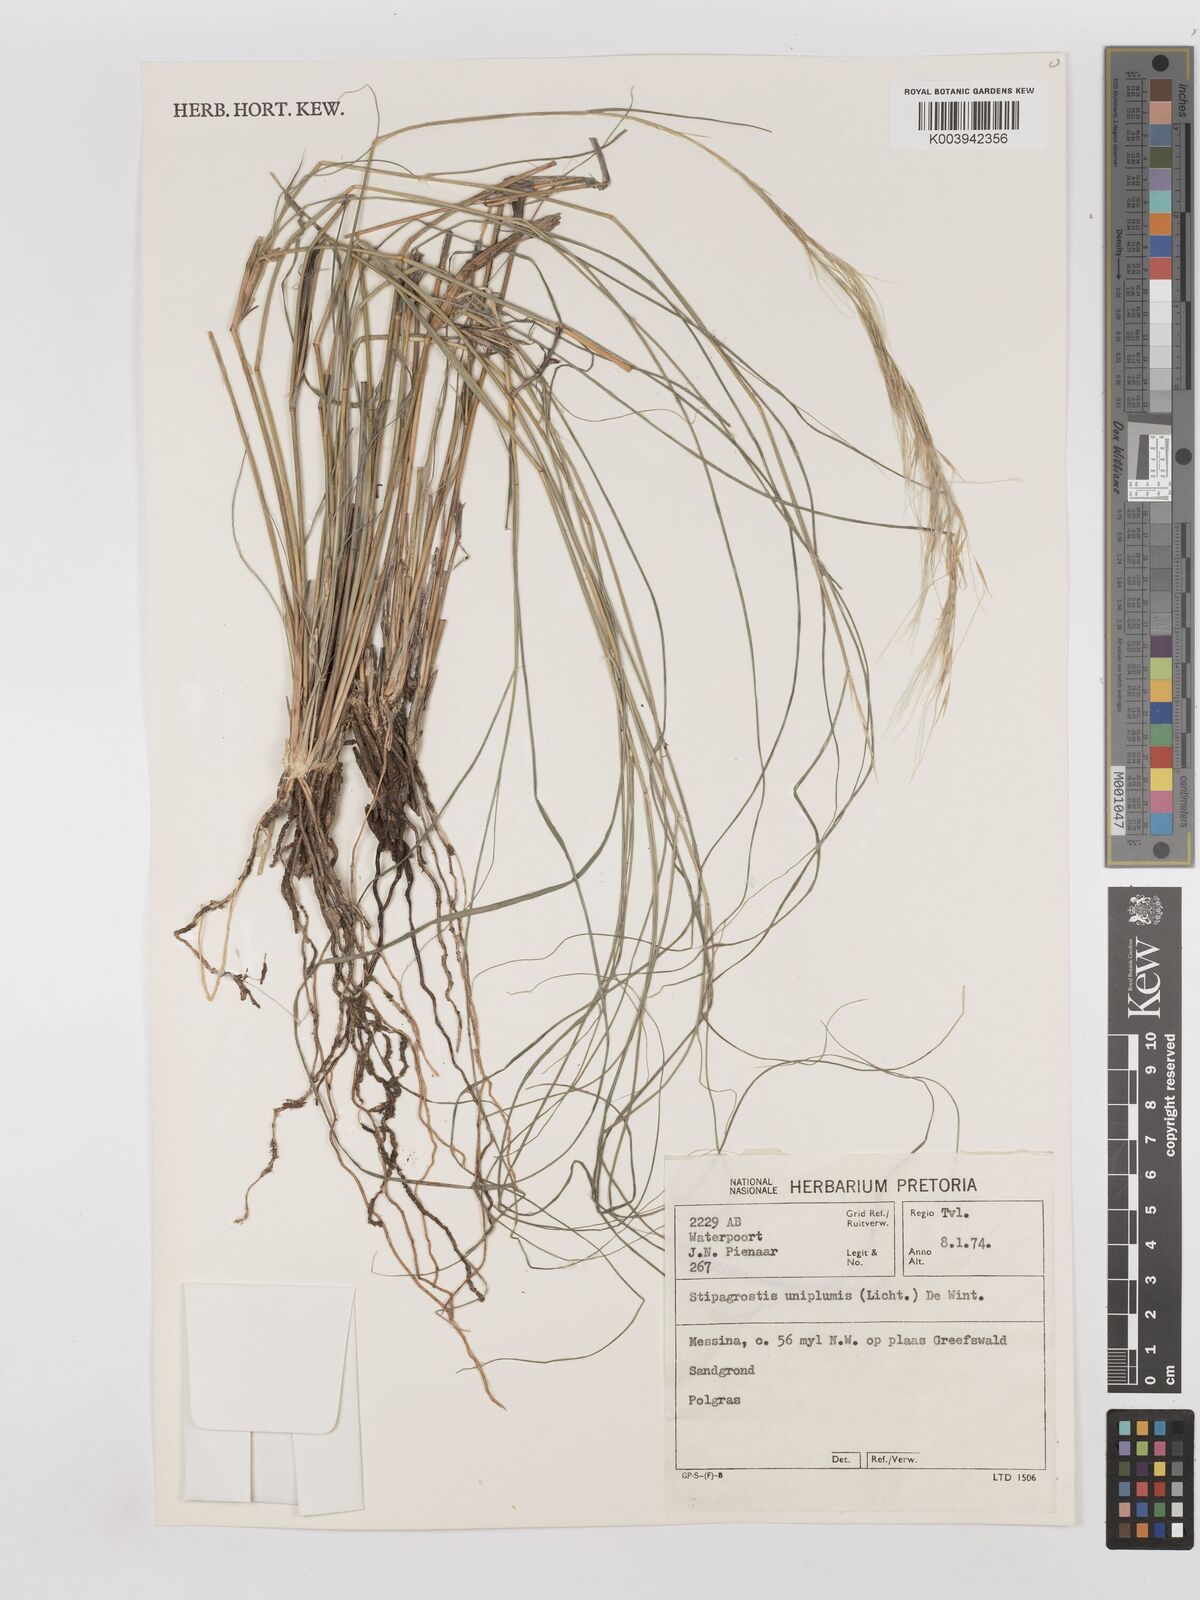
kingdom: Plantae
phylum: Tracheophyta
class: Liliopsida
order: Poales
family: Poaceae
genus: Stipagrostis
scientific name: Stipagrostis uniplumis
